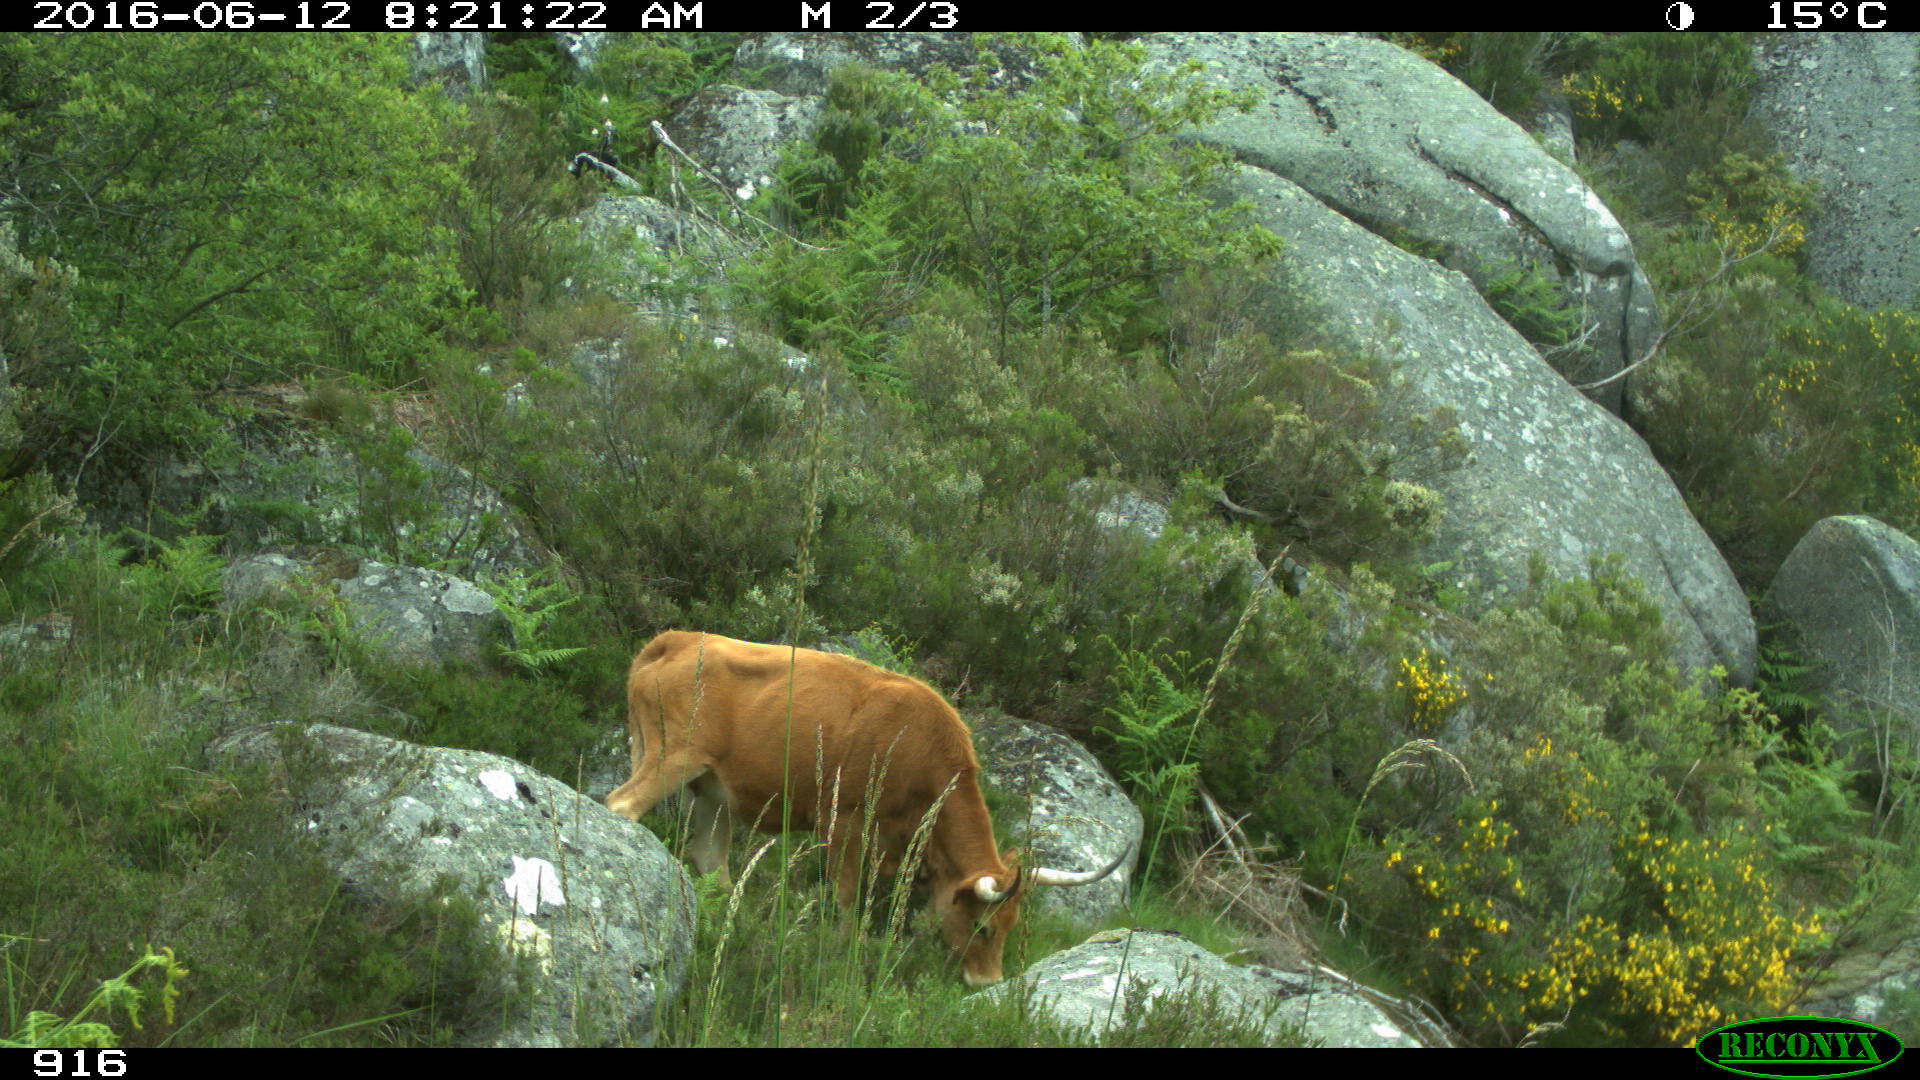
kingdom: Animalia
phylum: Chordata
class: Mammalia
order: Artiodactyla
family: Bovidae
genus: Bos
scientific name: Bos taurus
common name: Domesticated cattle
